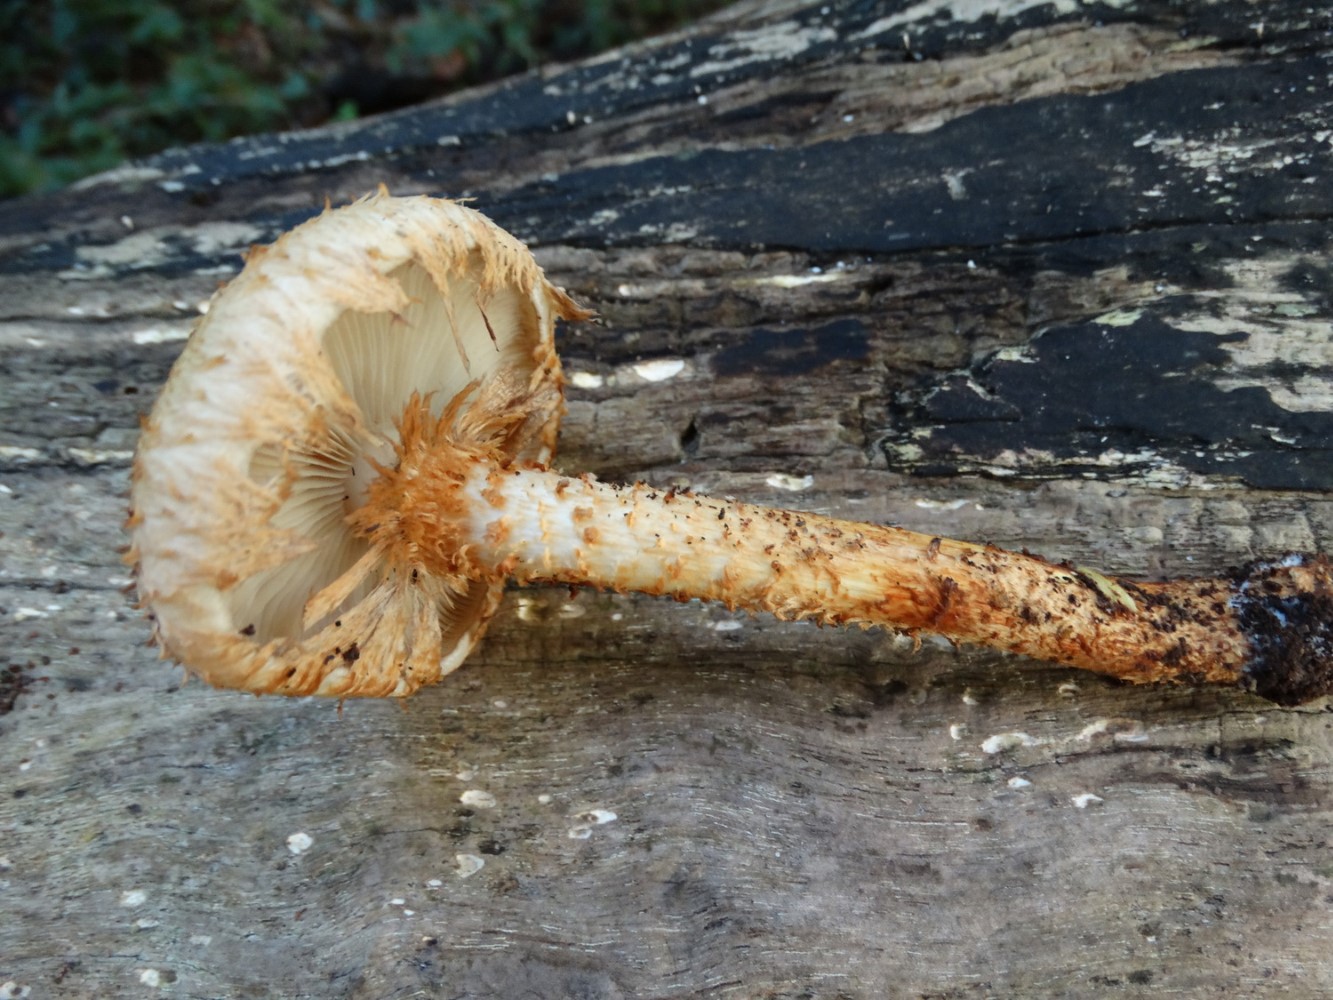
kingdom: Fungi
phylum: Basidiomycota
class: Agaricomycetes
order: Agaricales
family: Strophariaceae
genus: Pholiota
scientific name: Pholiota squarrosa
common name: krumskællet skælhat
